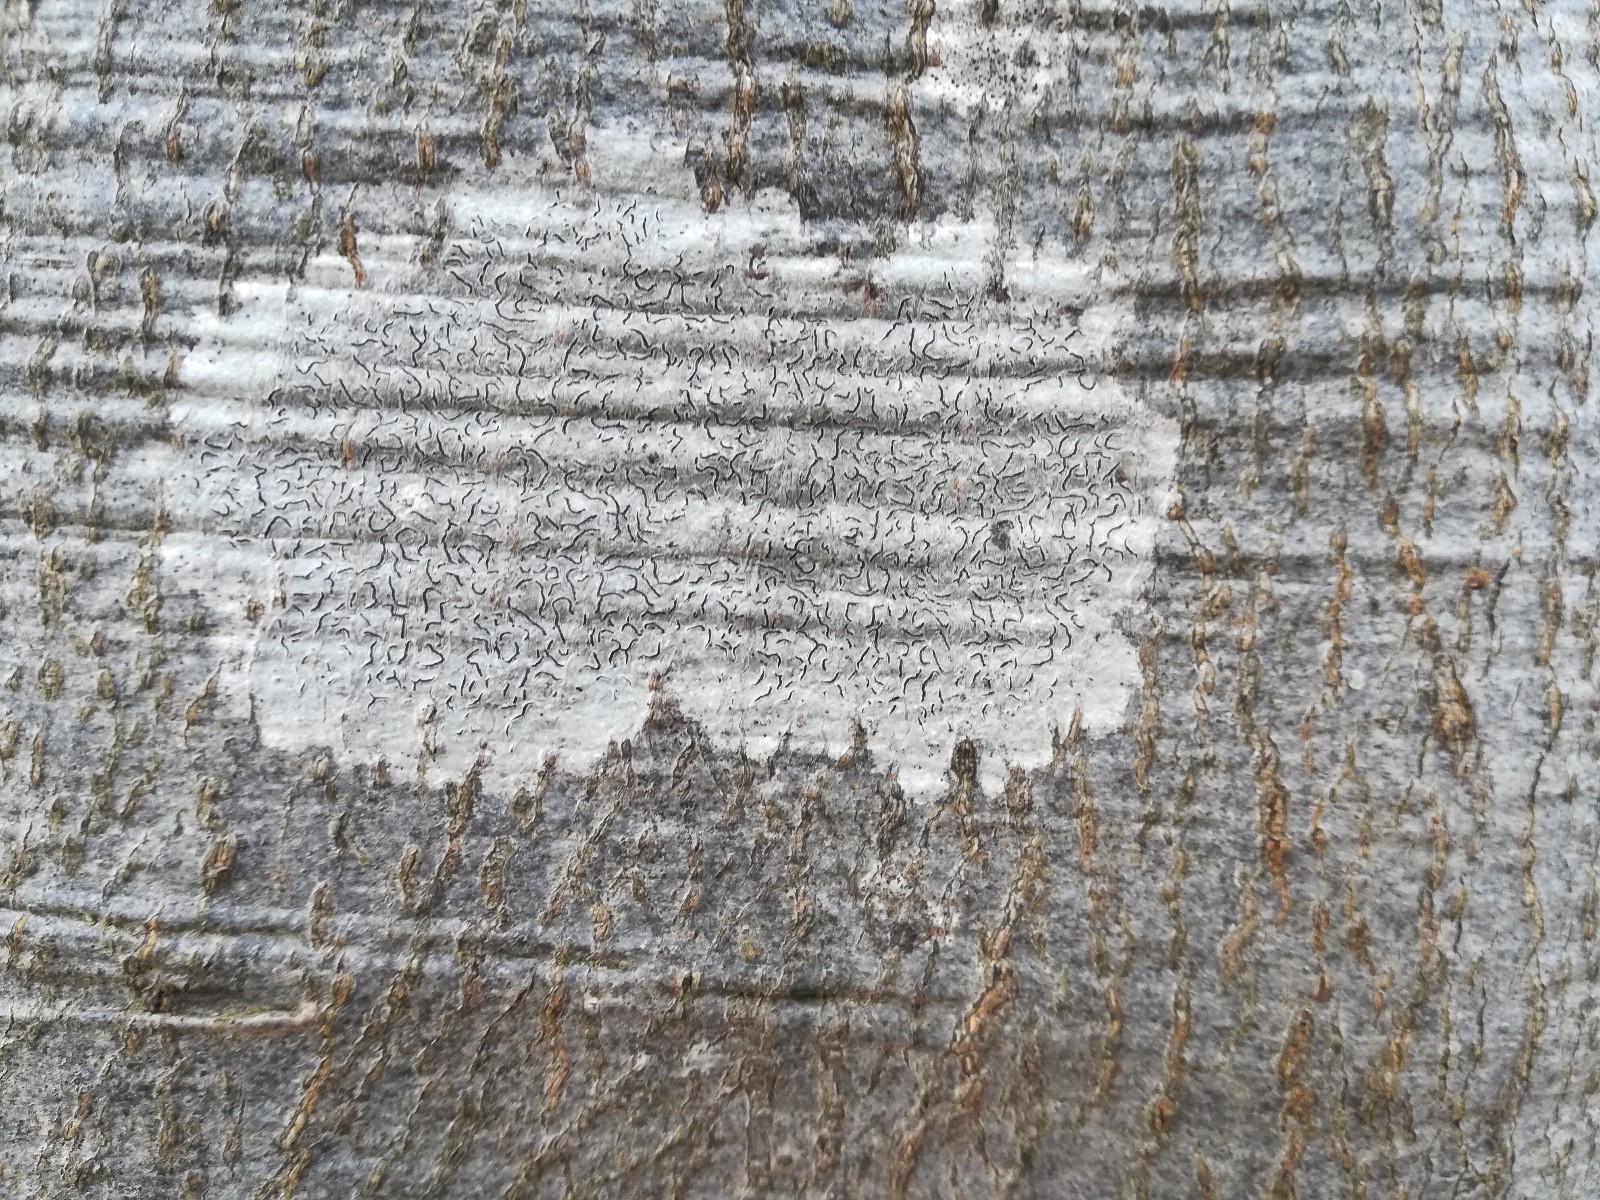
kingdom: Fungi
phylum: Ascomycota
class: Lecanoromycetes
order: Ostropales
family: Graphidaceae
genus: Graphis
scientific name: Graphis scripta
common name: almindelig skriftlav
